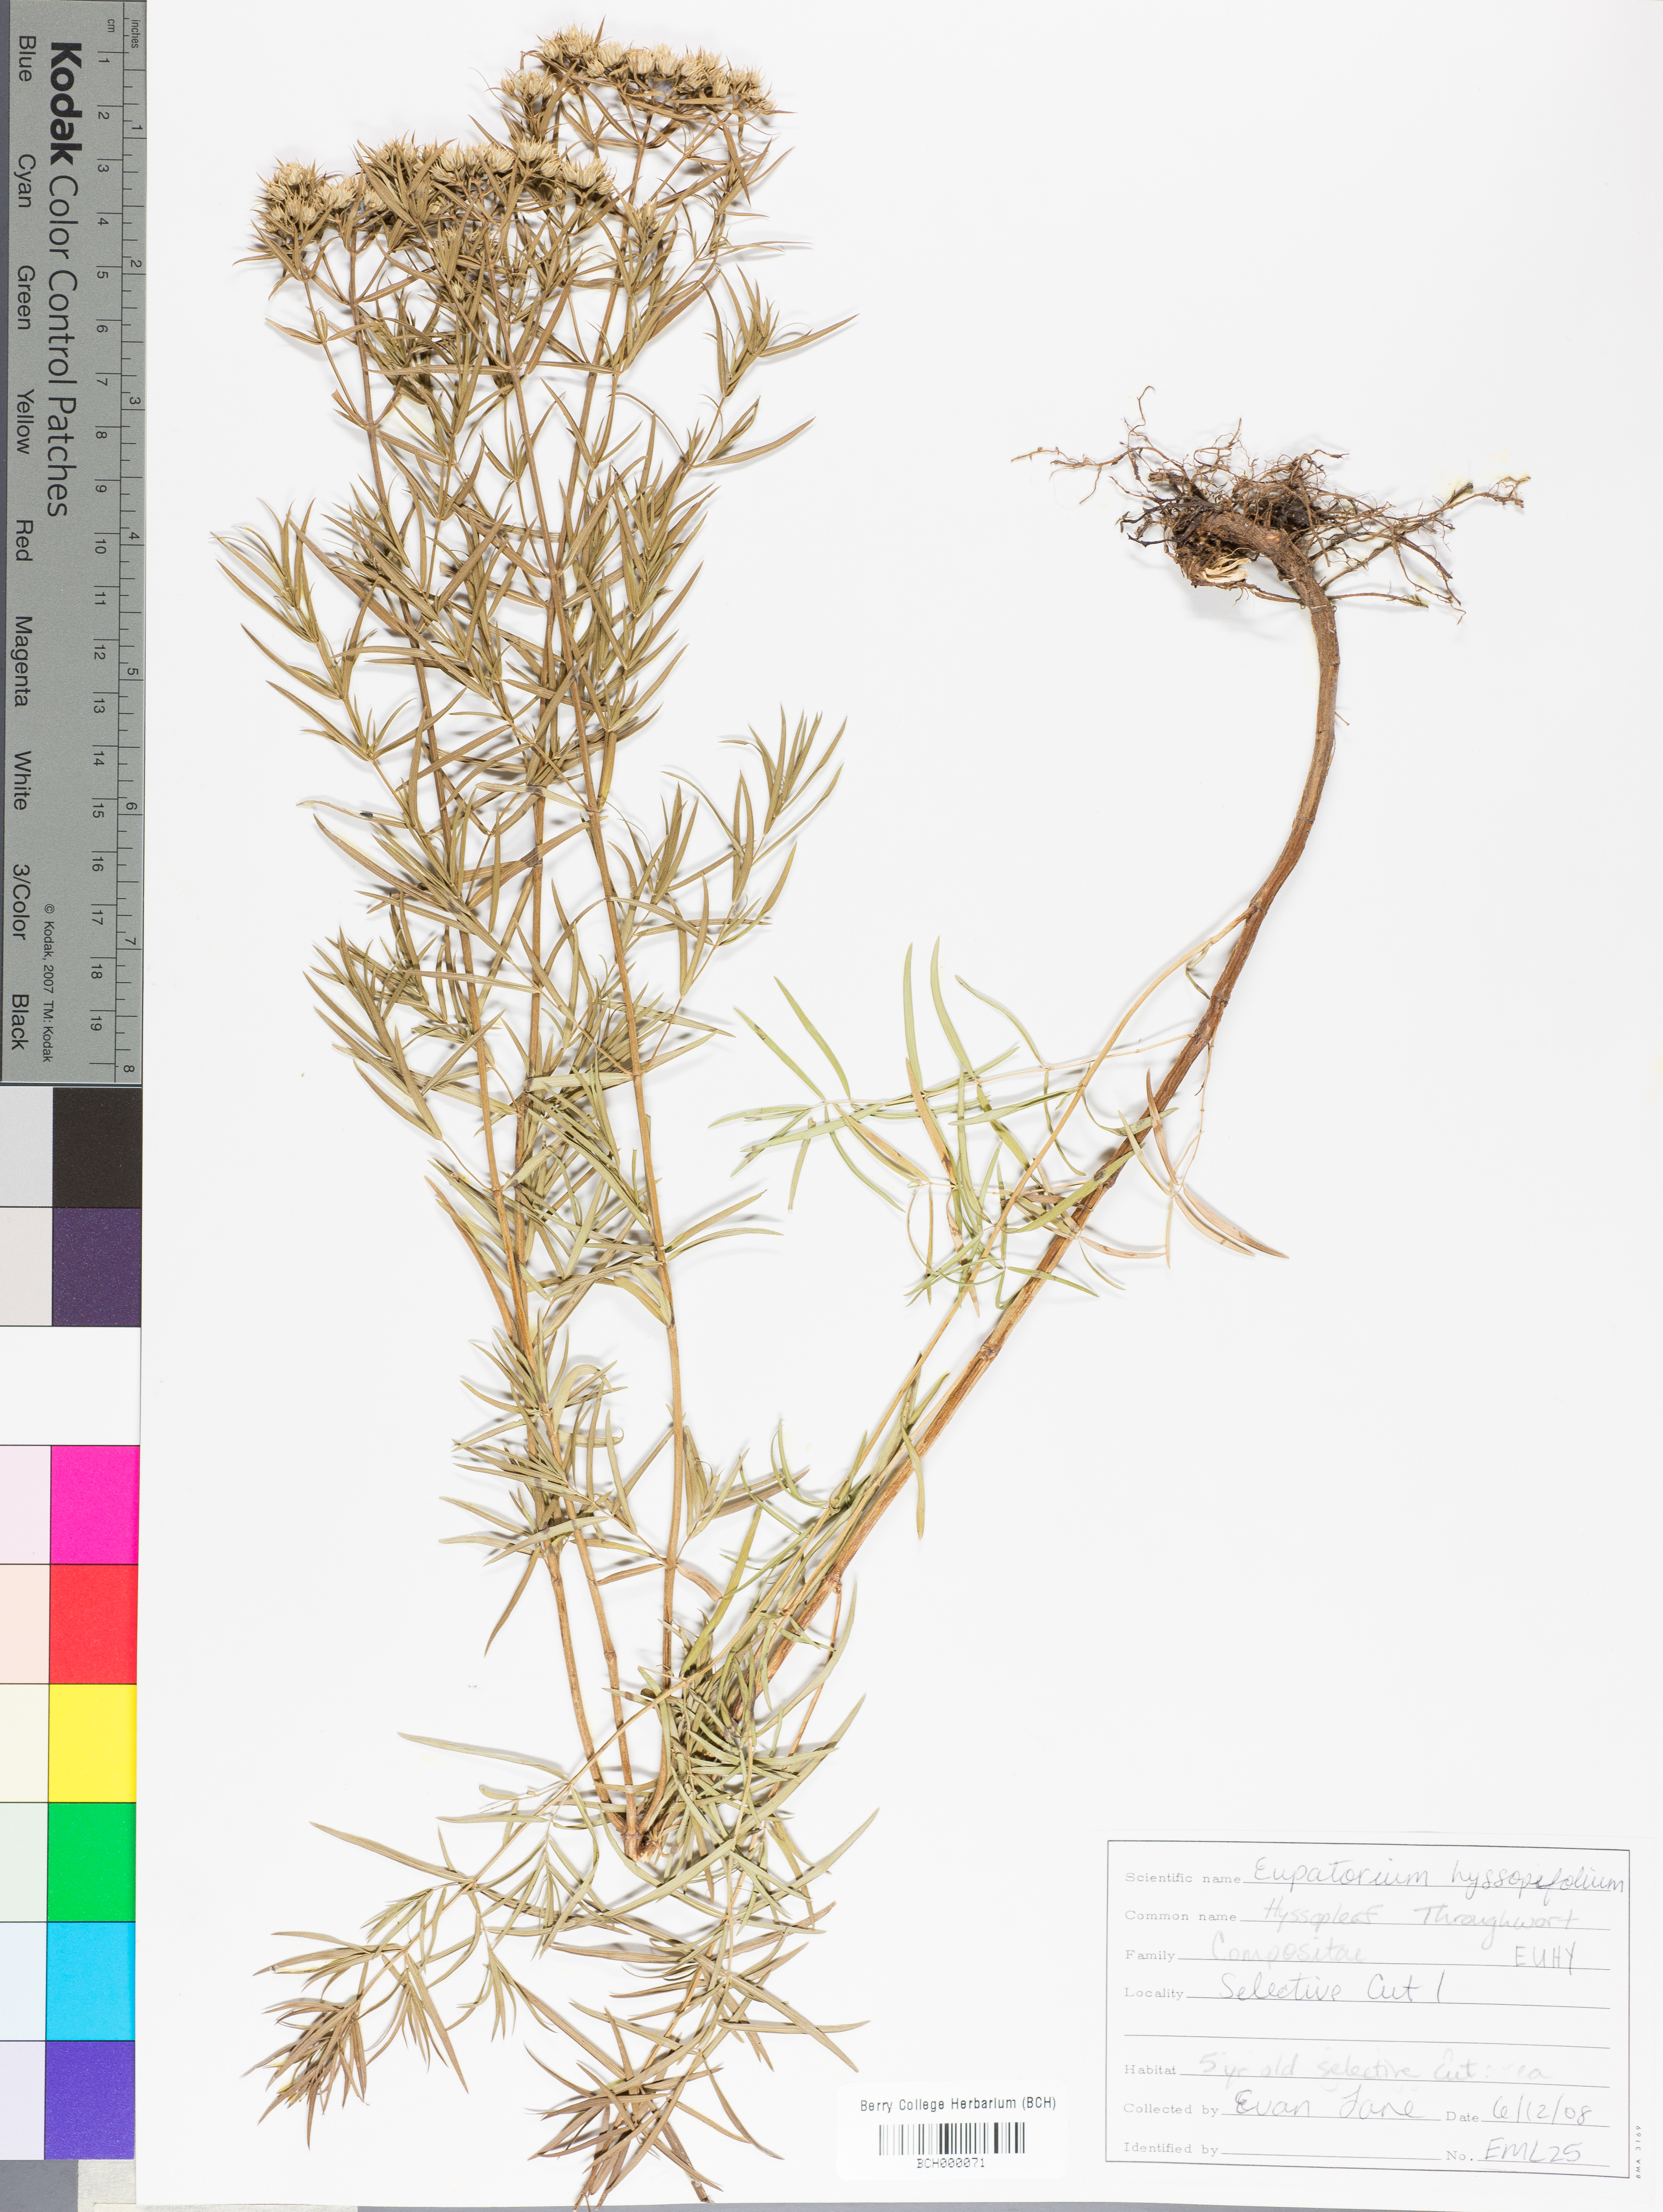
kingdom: Plantae
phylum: Tracheophyta
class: Magnoliopsida
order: Asterales
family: Asteraceae
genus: Eupatorium
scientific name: Eupatorium hyssopifolium
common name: Hyssop-leaf thoroughwort
